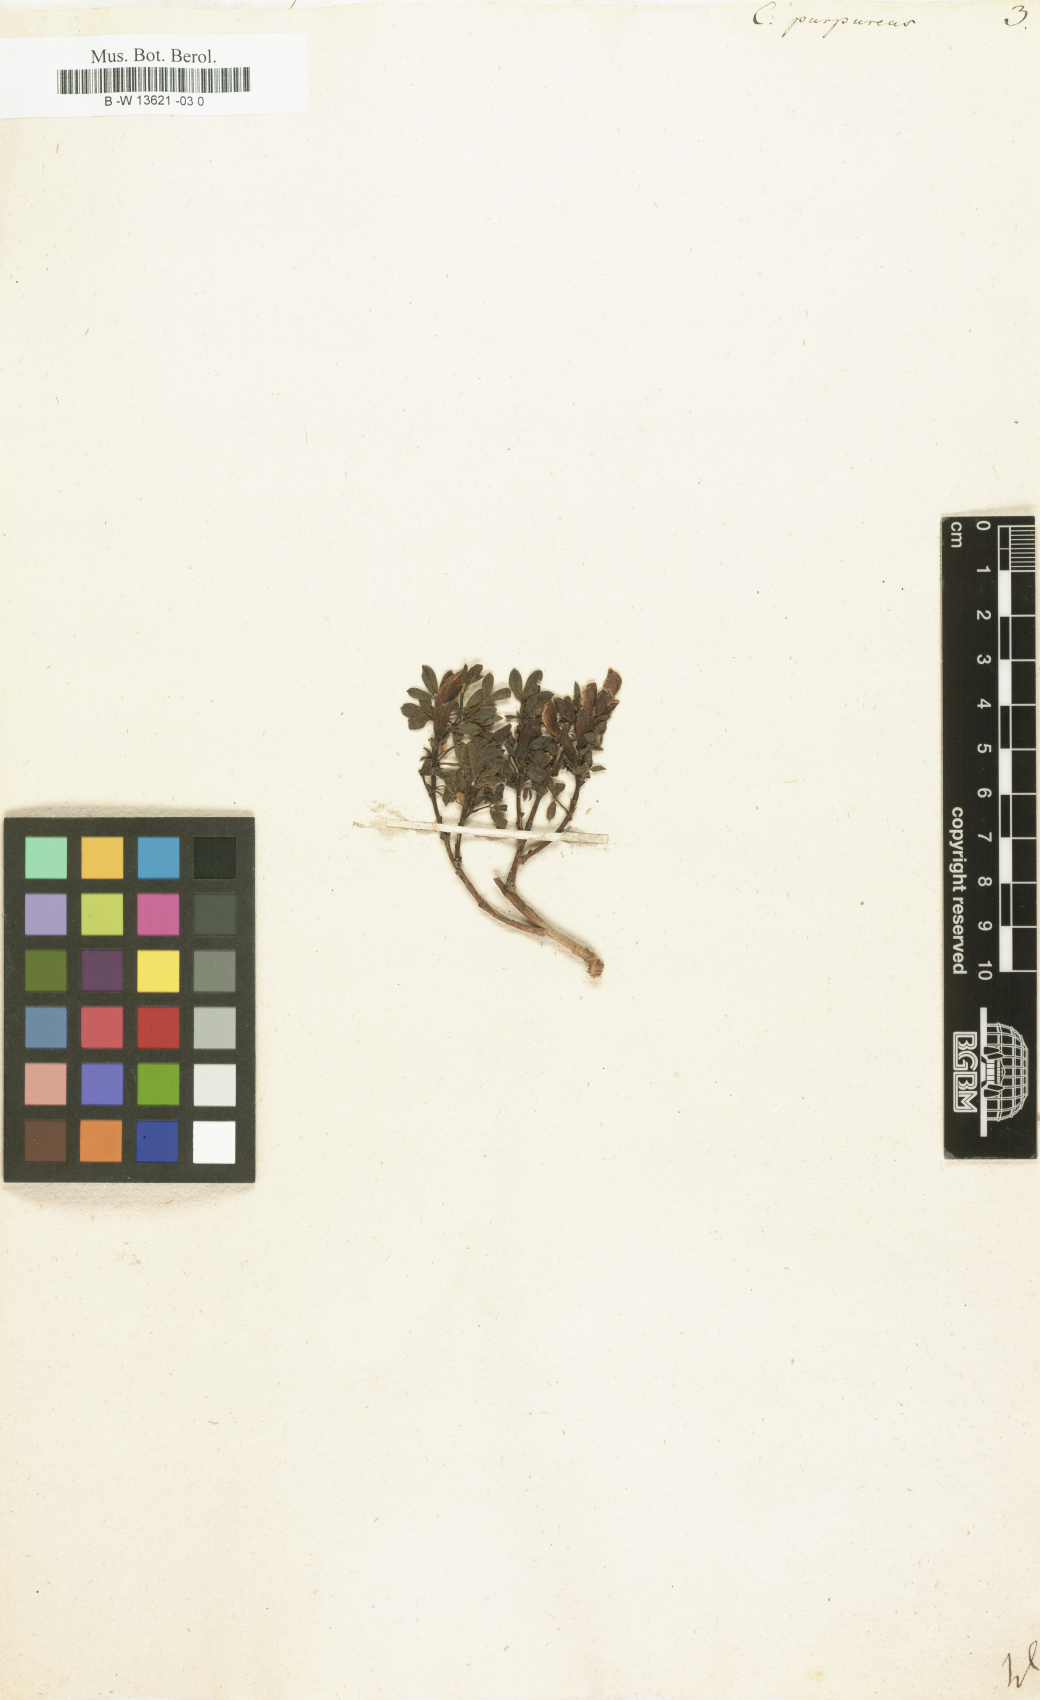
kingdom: Plantae
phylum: Tracheophyta
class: Magnoliopsida
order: Fabales
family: Fabaceae
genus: Chamaecytisus
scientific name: Chamaecytisus purpureus
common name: Purple broom
